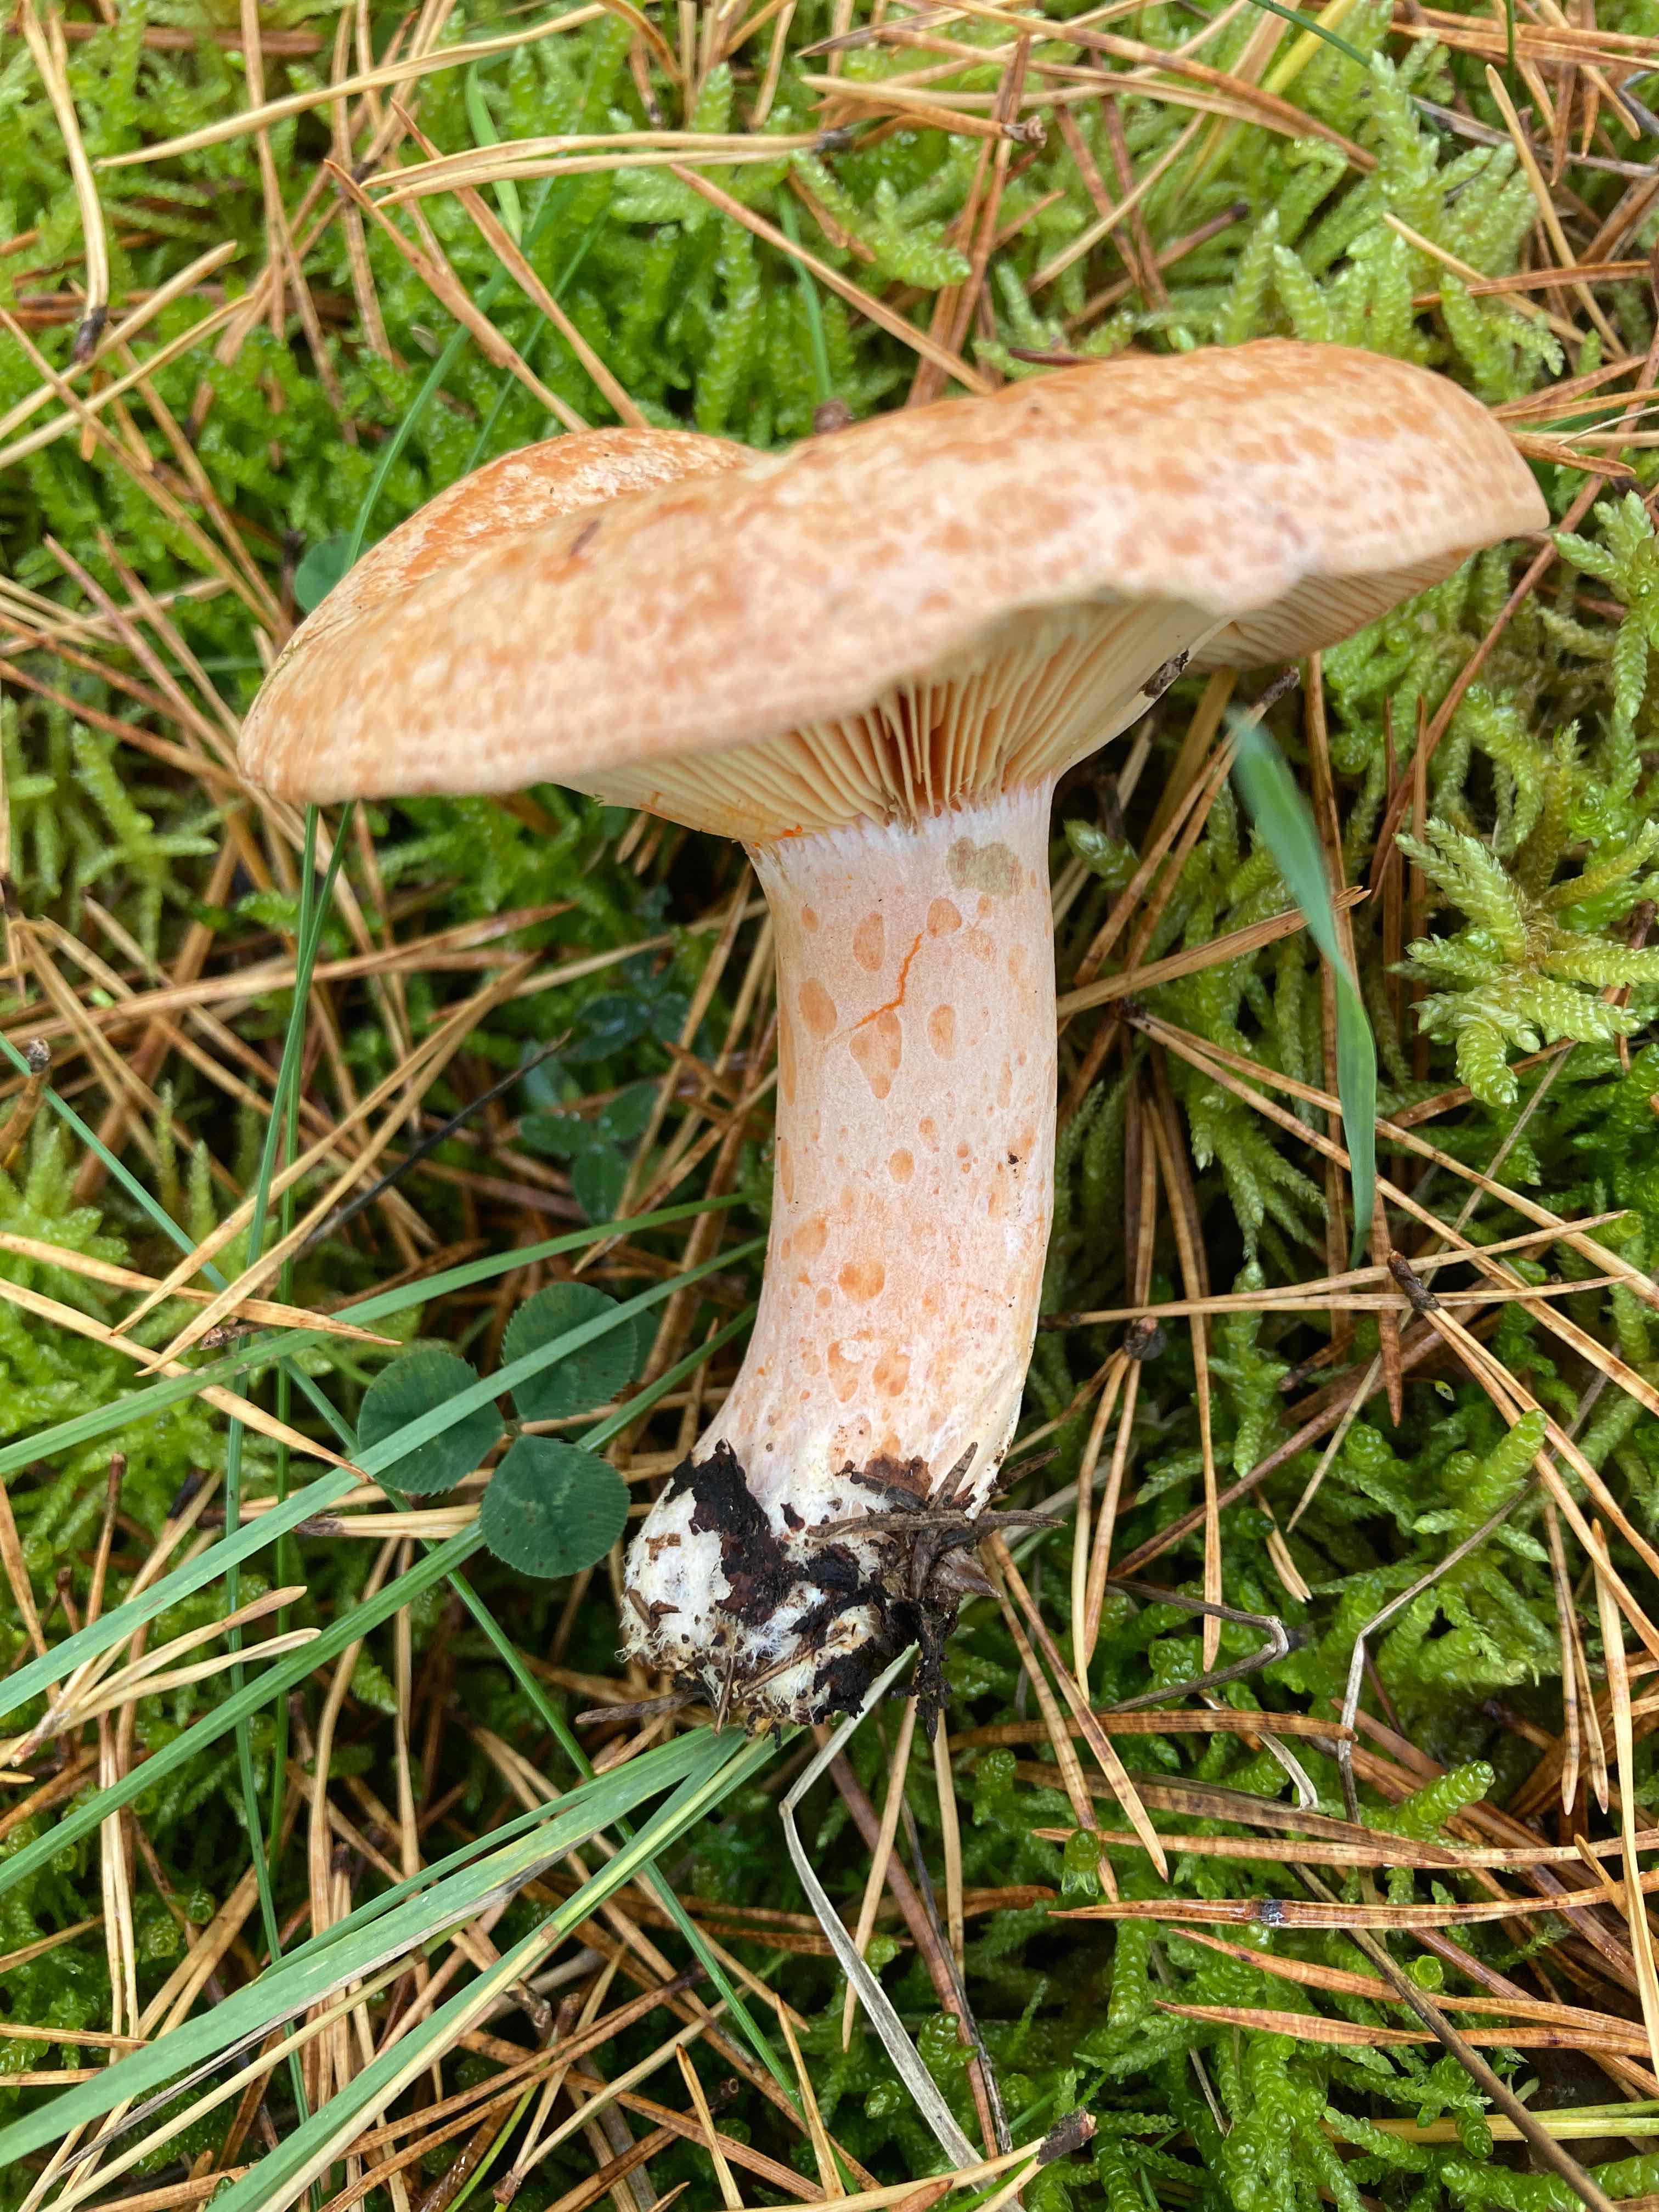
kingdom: Fungi
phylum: Basidiomycota
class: Agaricomycetes
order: Russulales
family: Russulaceae
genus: Lactarius
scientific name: Lactarius deliciosus
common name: velsmagende mælkehat
